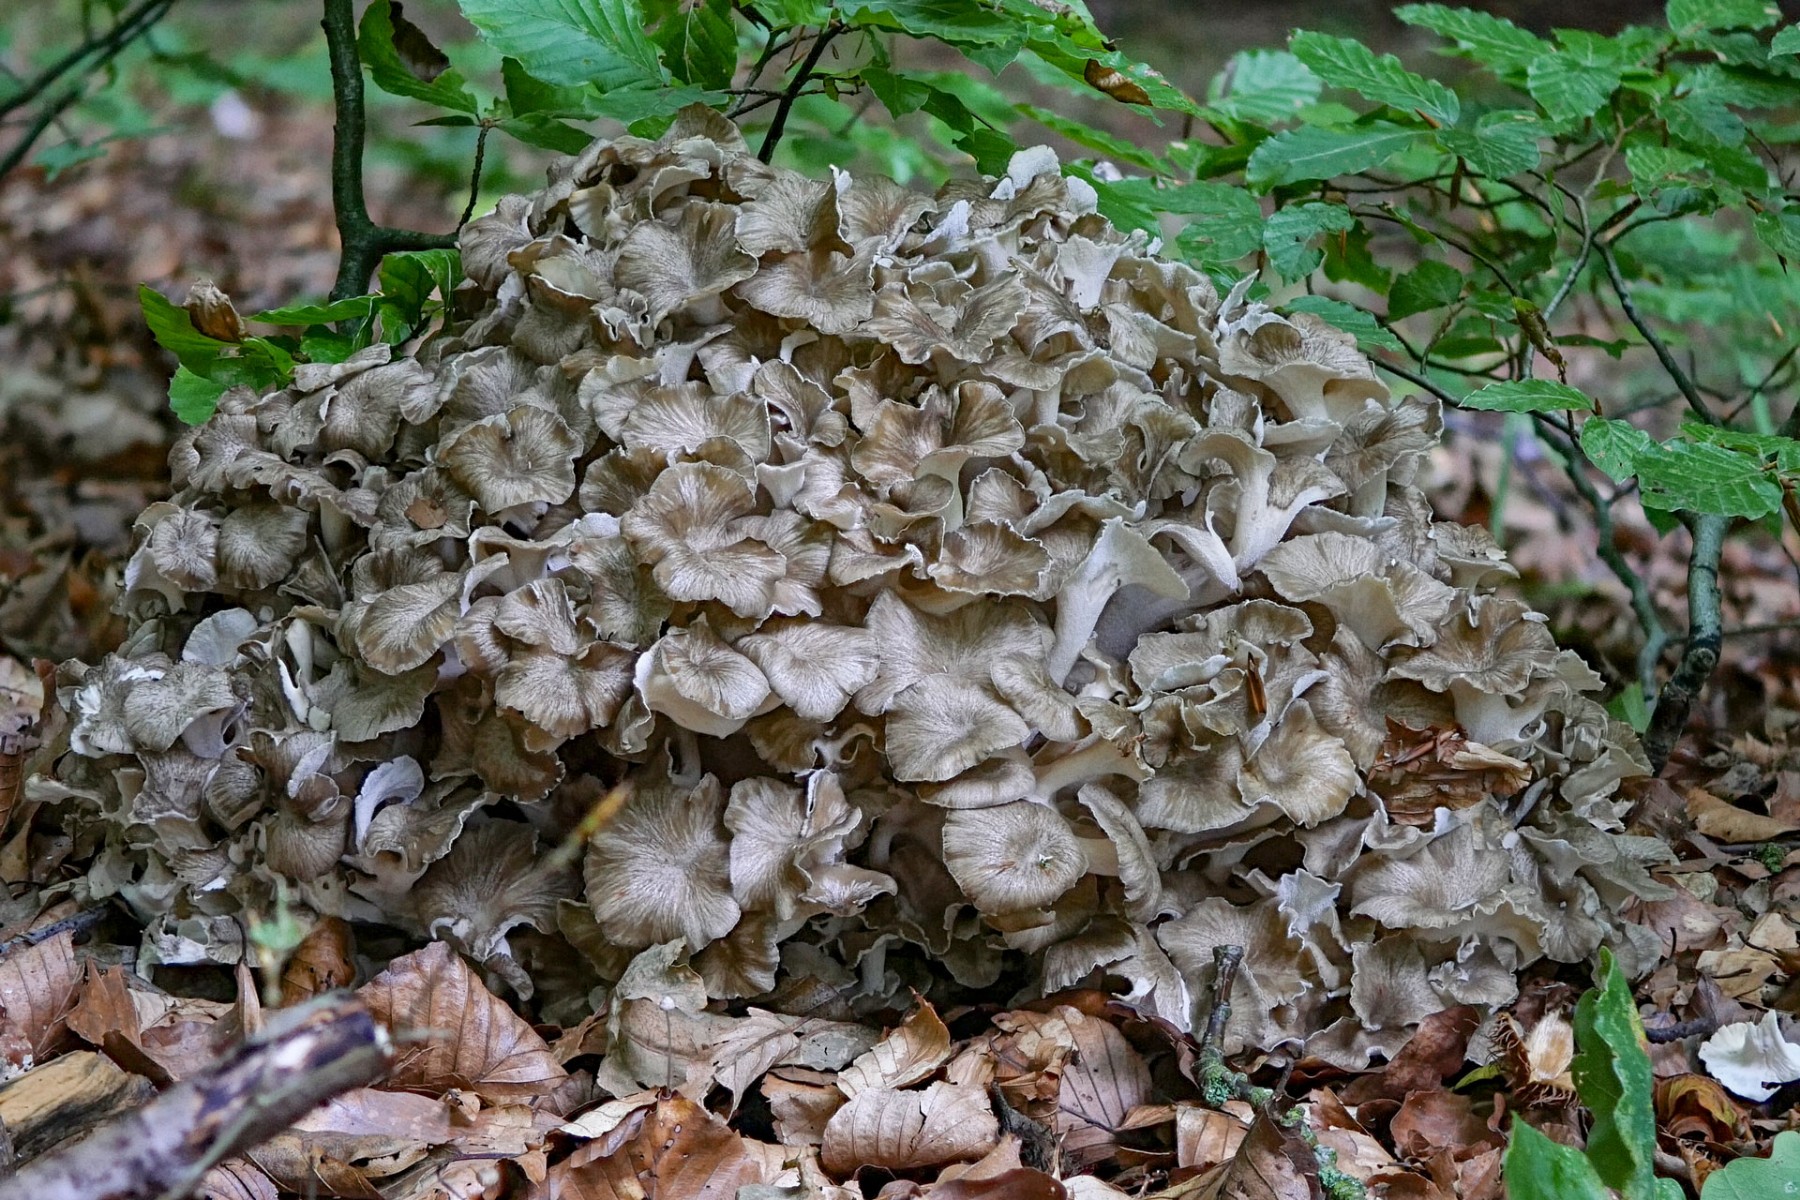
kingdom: Fungi
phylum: Basidiomycota
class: Agaricomycetes
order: Polyporales
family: Polyporaceae
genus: Polyporus
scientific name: Polyporus umbellatus
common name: skærmformet stilkporesvamp
